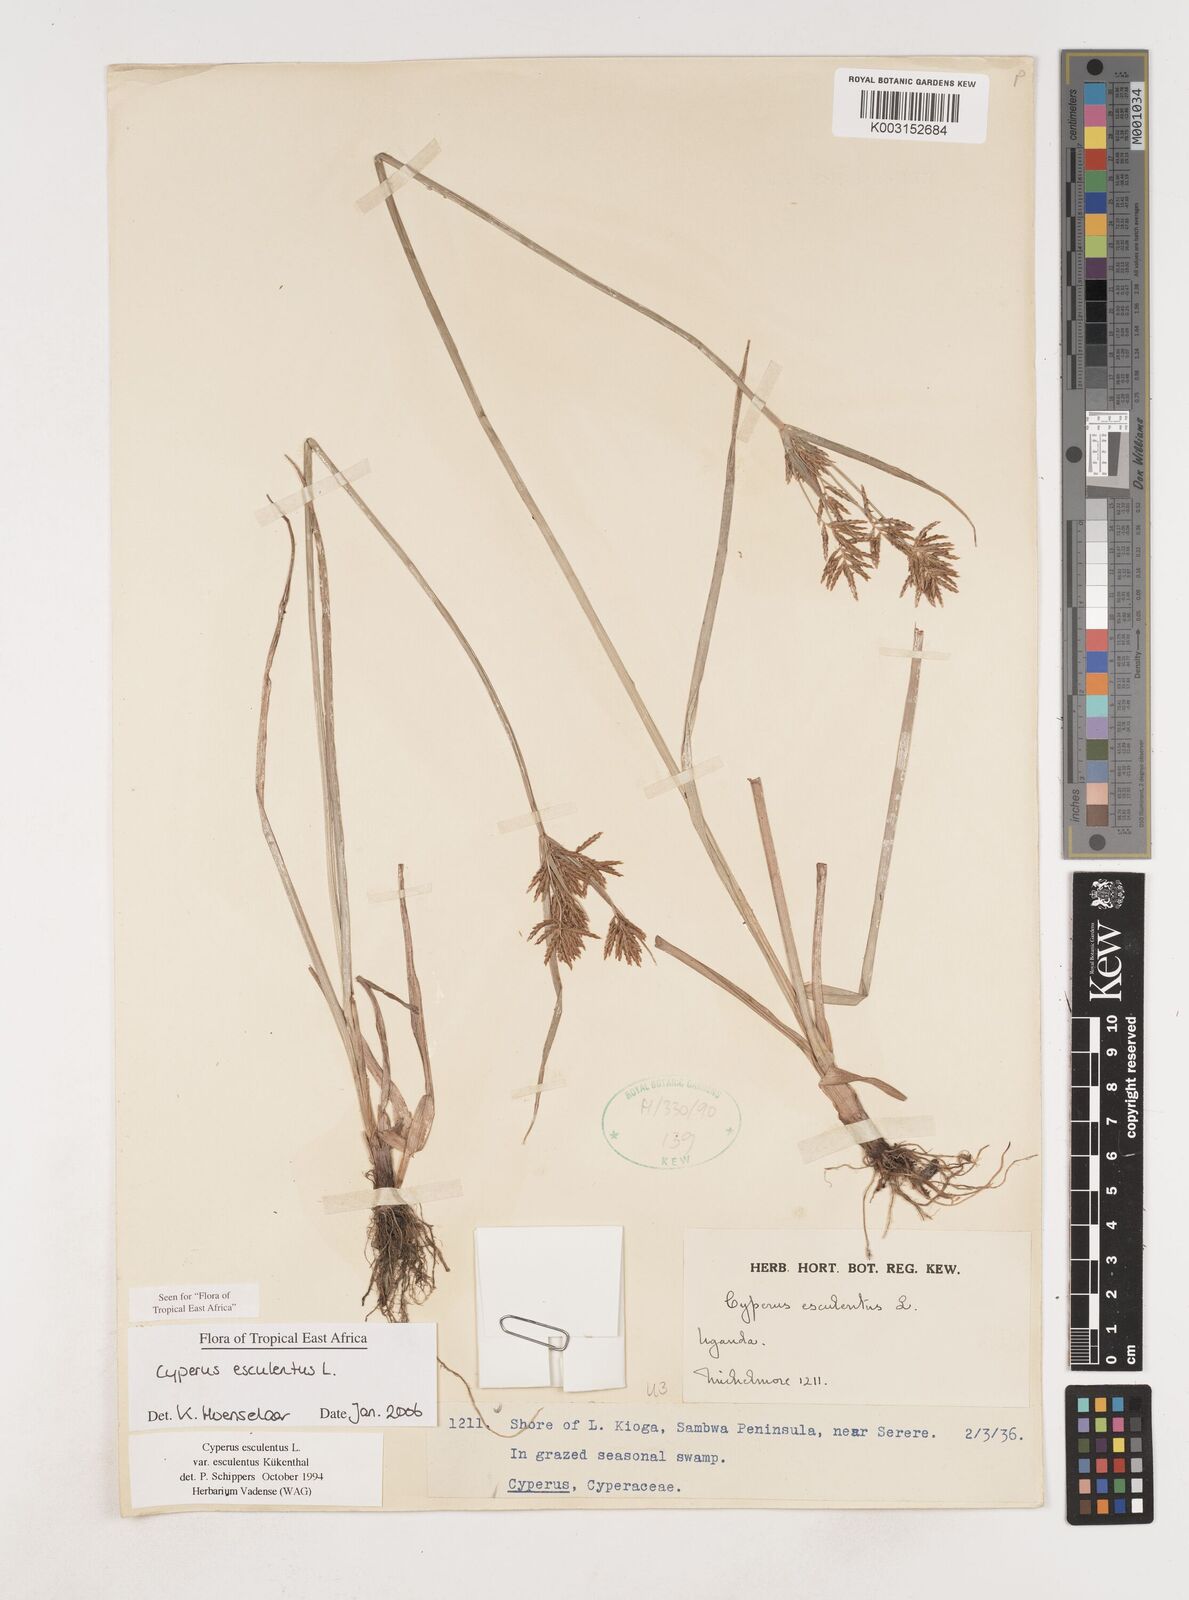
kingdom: Plantae
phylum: Tracheophyta
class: Liliopsida
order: Poales
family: Cyperaceae
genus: Cyperus
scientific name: Cyperus esculentus
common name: Yellow nutsedge
